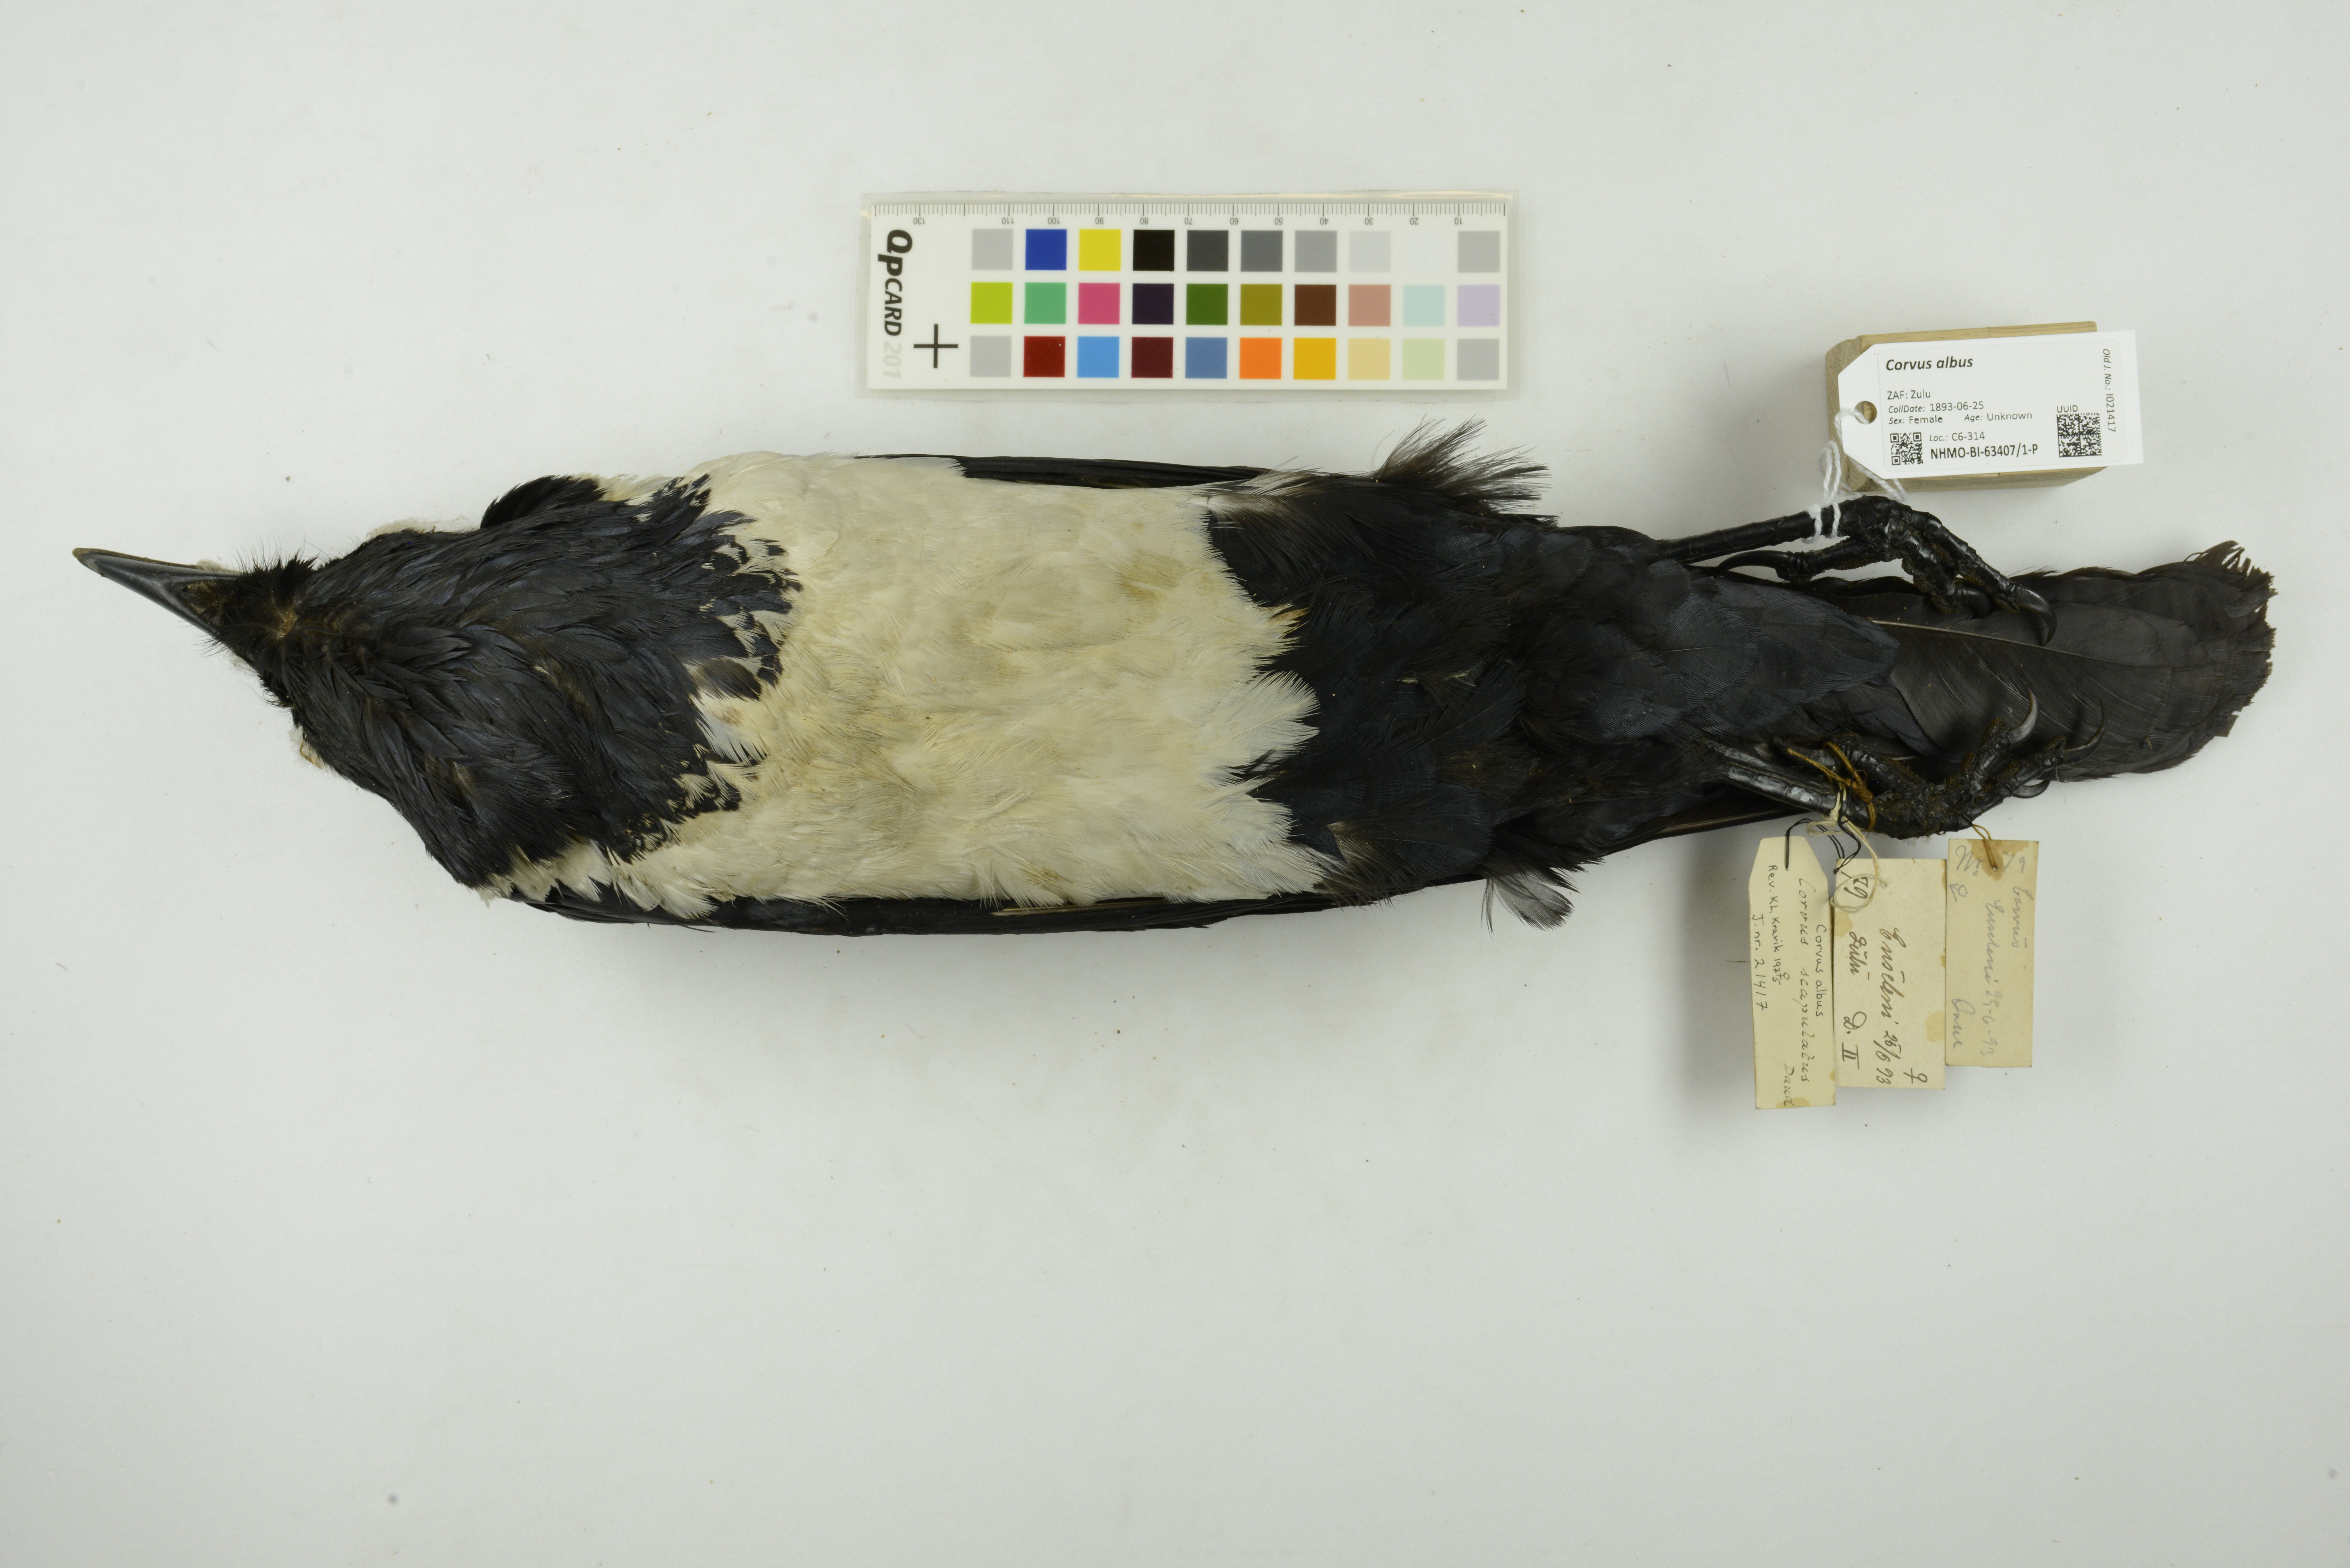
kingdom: Animalia
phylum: Chordata
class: Aves
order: Passeriformes
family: Corvidae
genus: Corvus
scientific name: Corvus albus
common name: Pied crow
